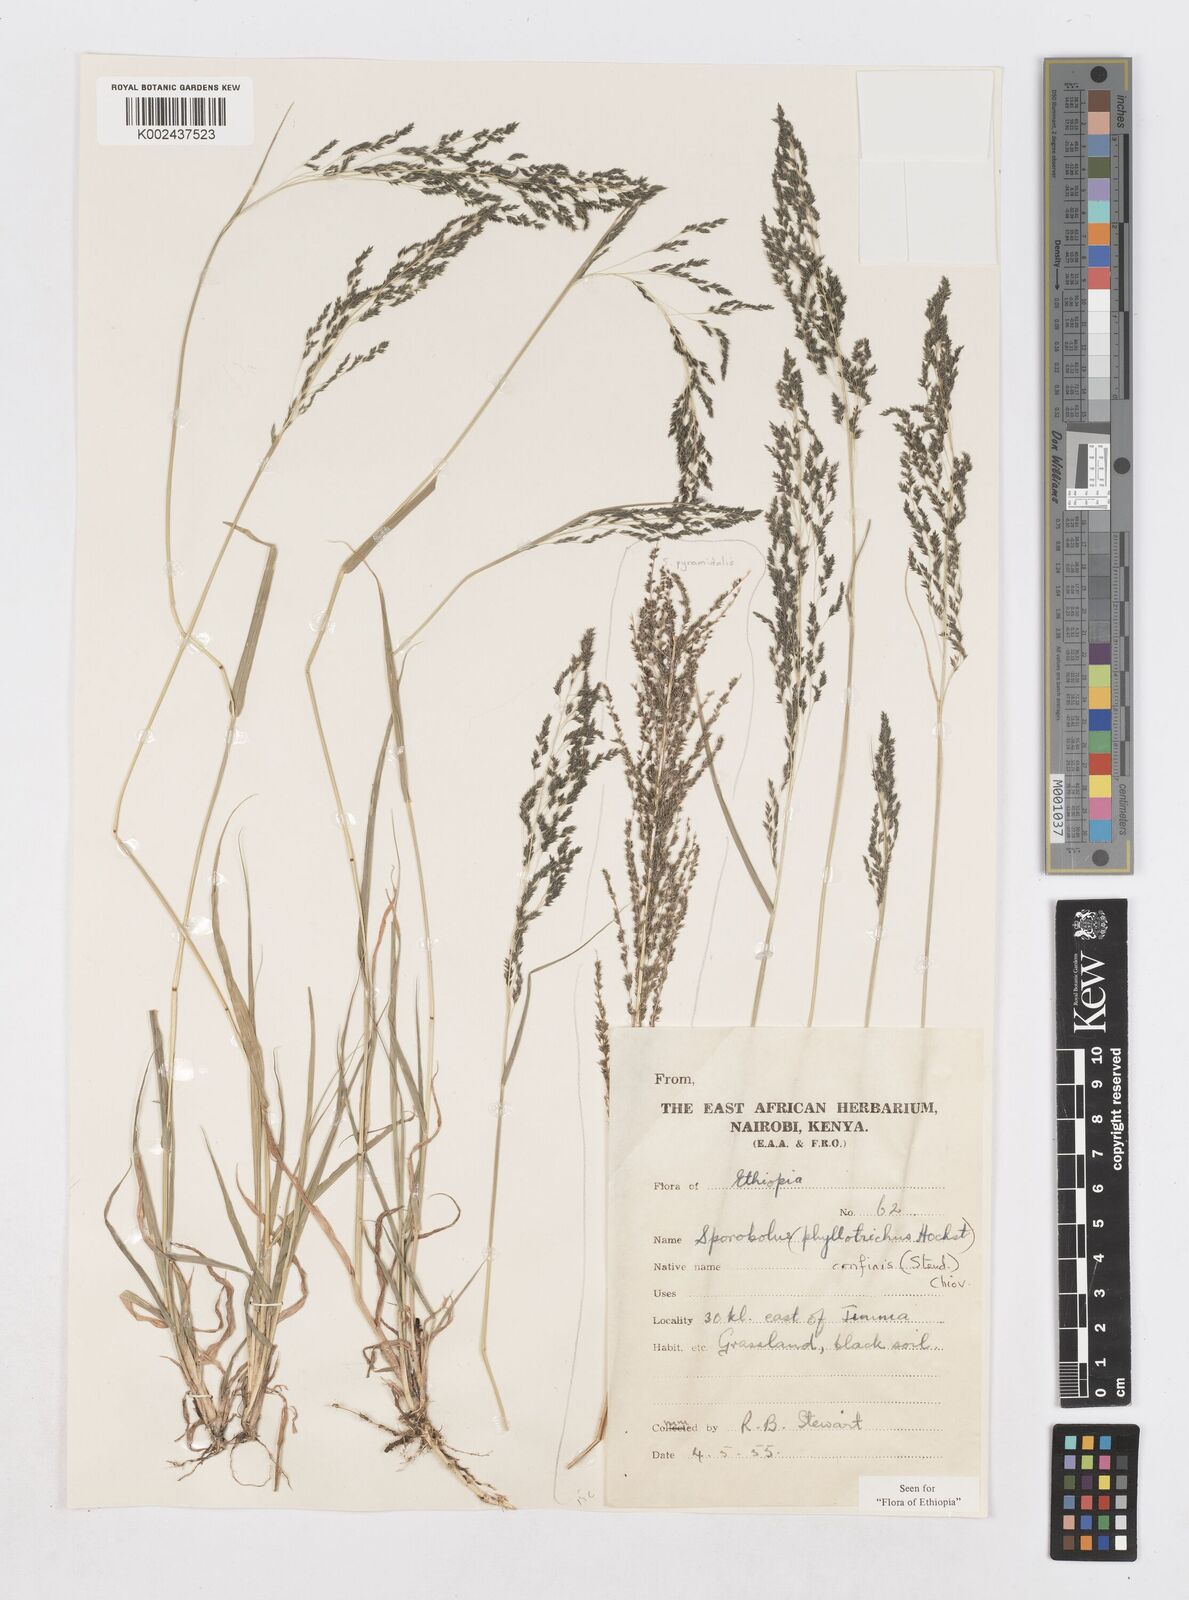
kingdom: Plantae
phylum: Tracheophyta
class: Liliopsida
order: Poales
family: Poaceae
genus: Sporobolus
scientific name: Sporobolus confinis
